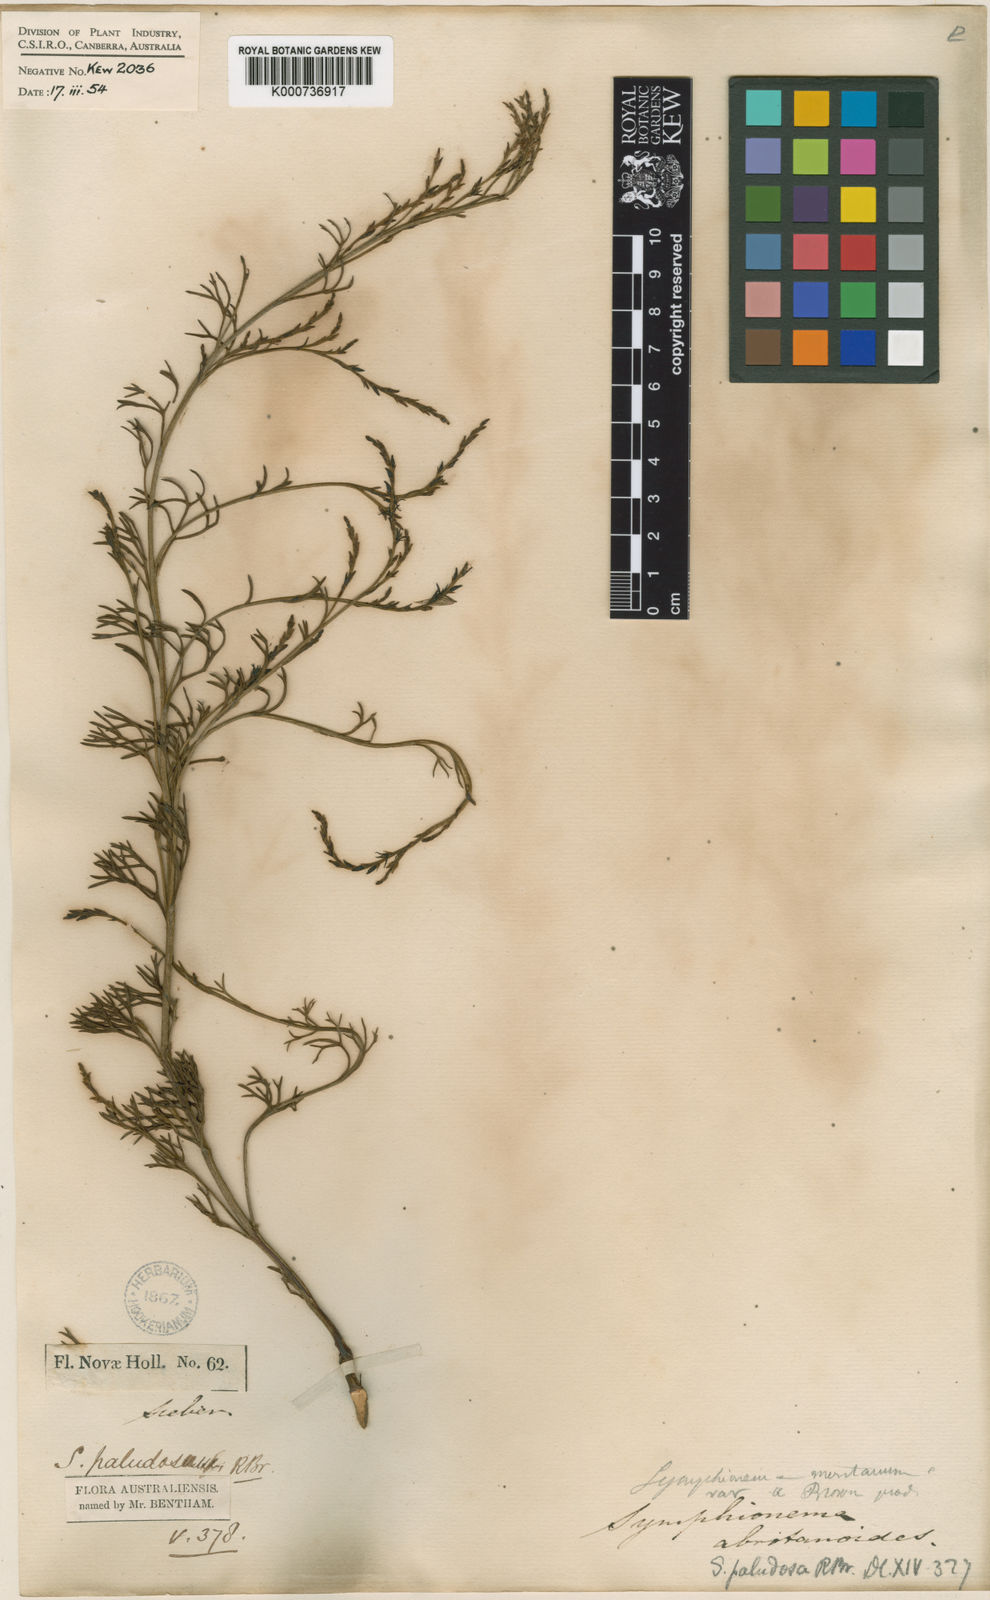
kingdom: Plantae
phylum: Tracheophyta
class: Magnoliopsida
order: Proteales
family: Proteaceae
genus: Symphionema
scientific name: Symphionema paludosum
